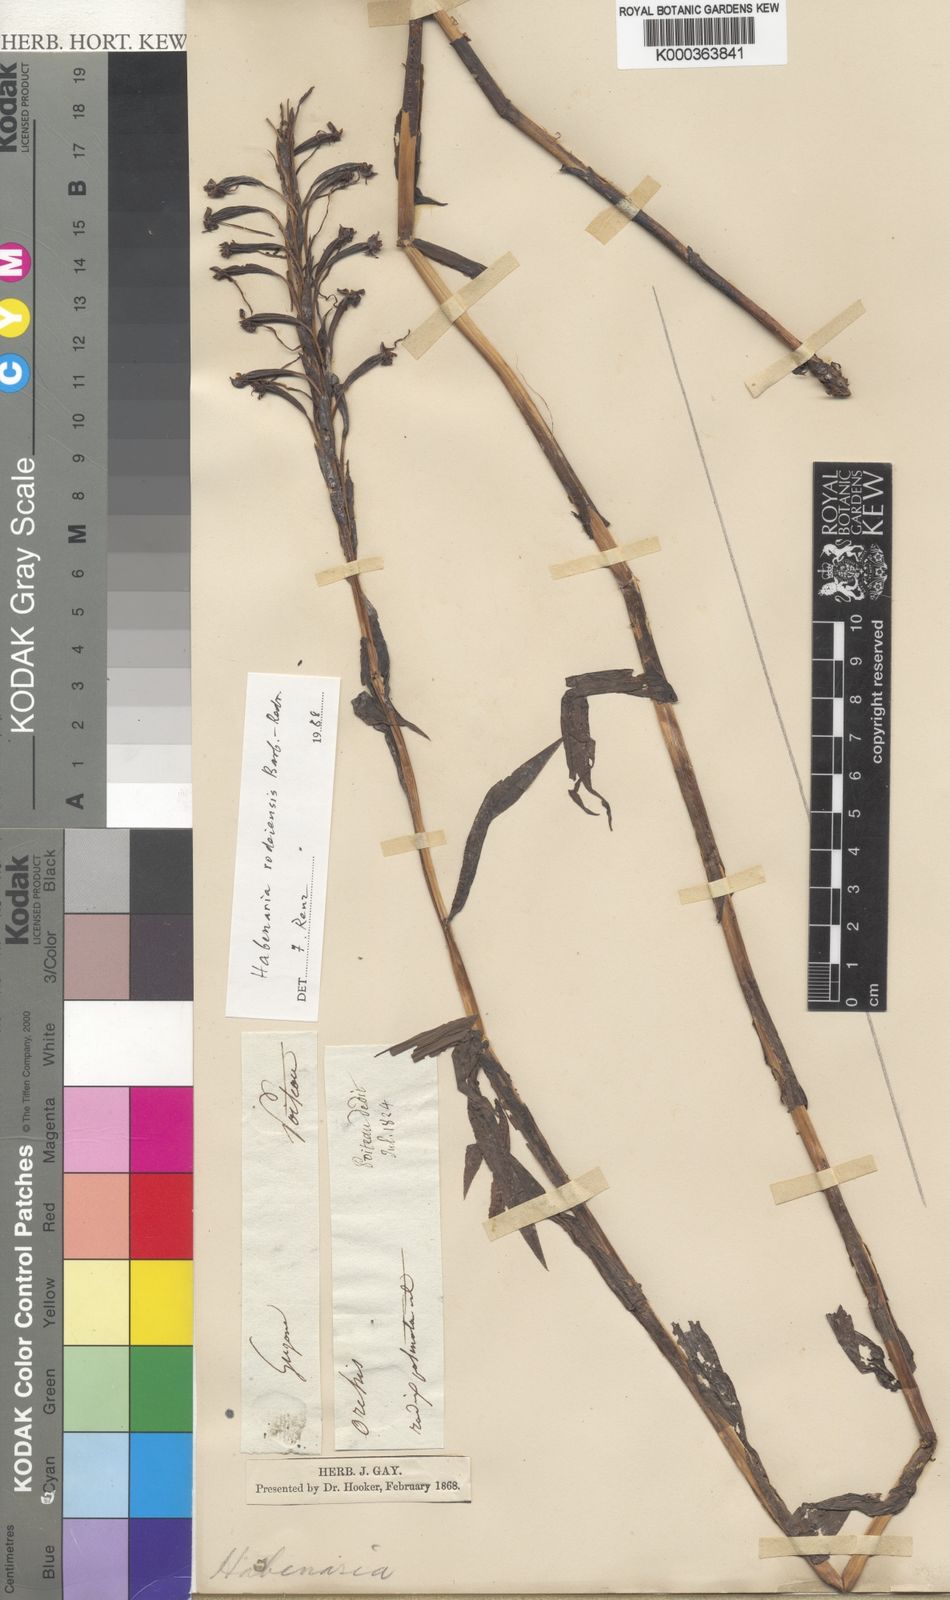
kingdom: Plantae
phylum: Tracheophyta
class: Liliopsida
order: Asparagales
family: Orchidaceae
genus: Habenaria
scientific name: Habenaria rodeiensis
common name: Bog orchid
